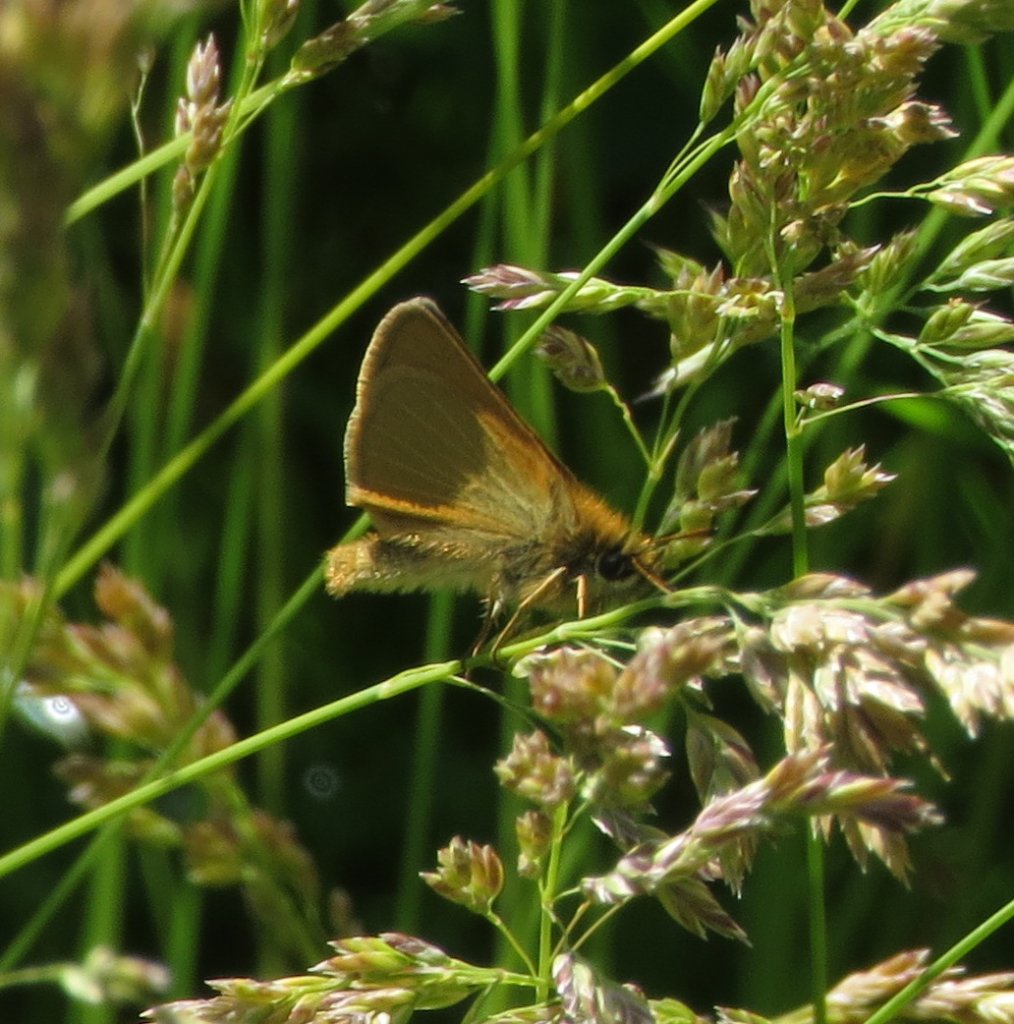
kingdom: Animalia
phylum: Arthropoda
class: Insecta
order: Lepidoptera
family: Hesperiidae
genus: Thymelicus
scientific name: Thymelicus lineola
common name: European Skipper
